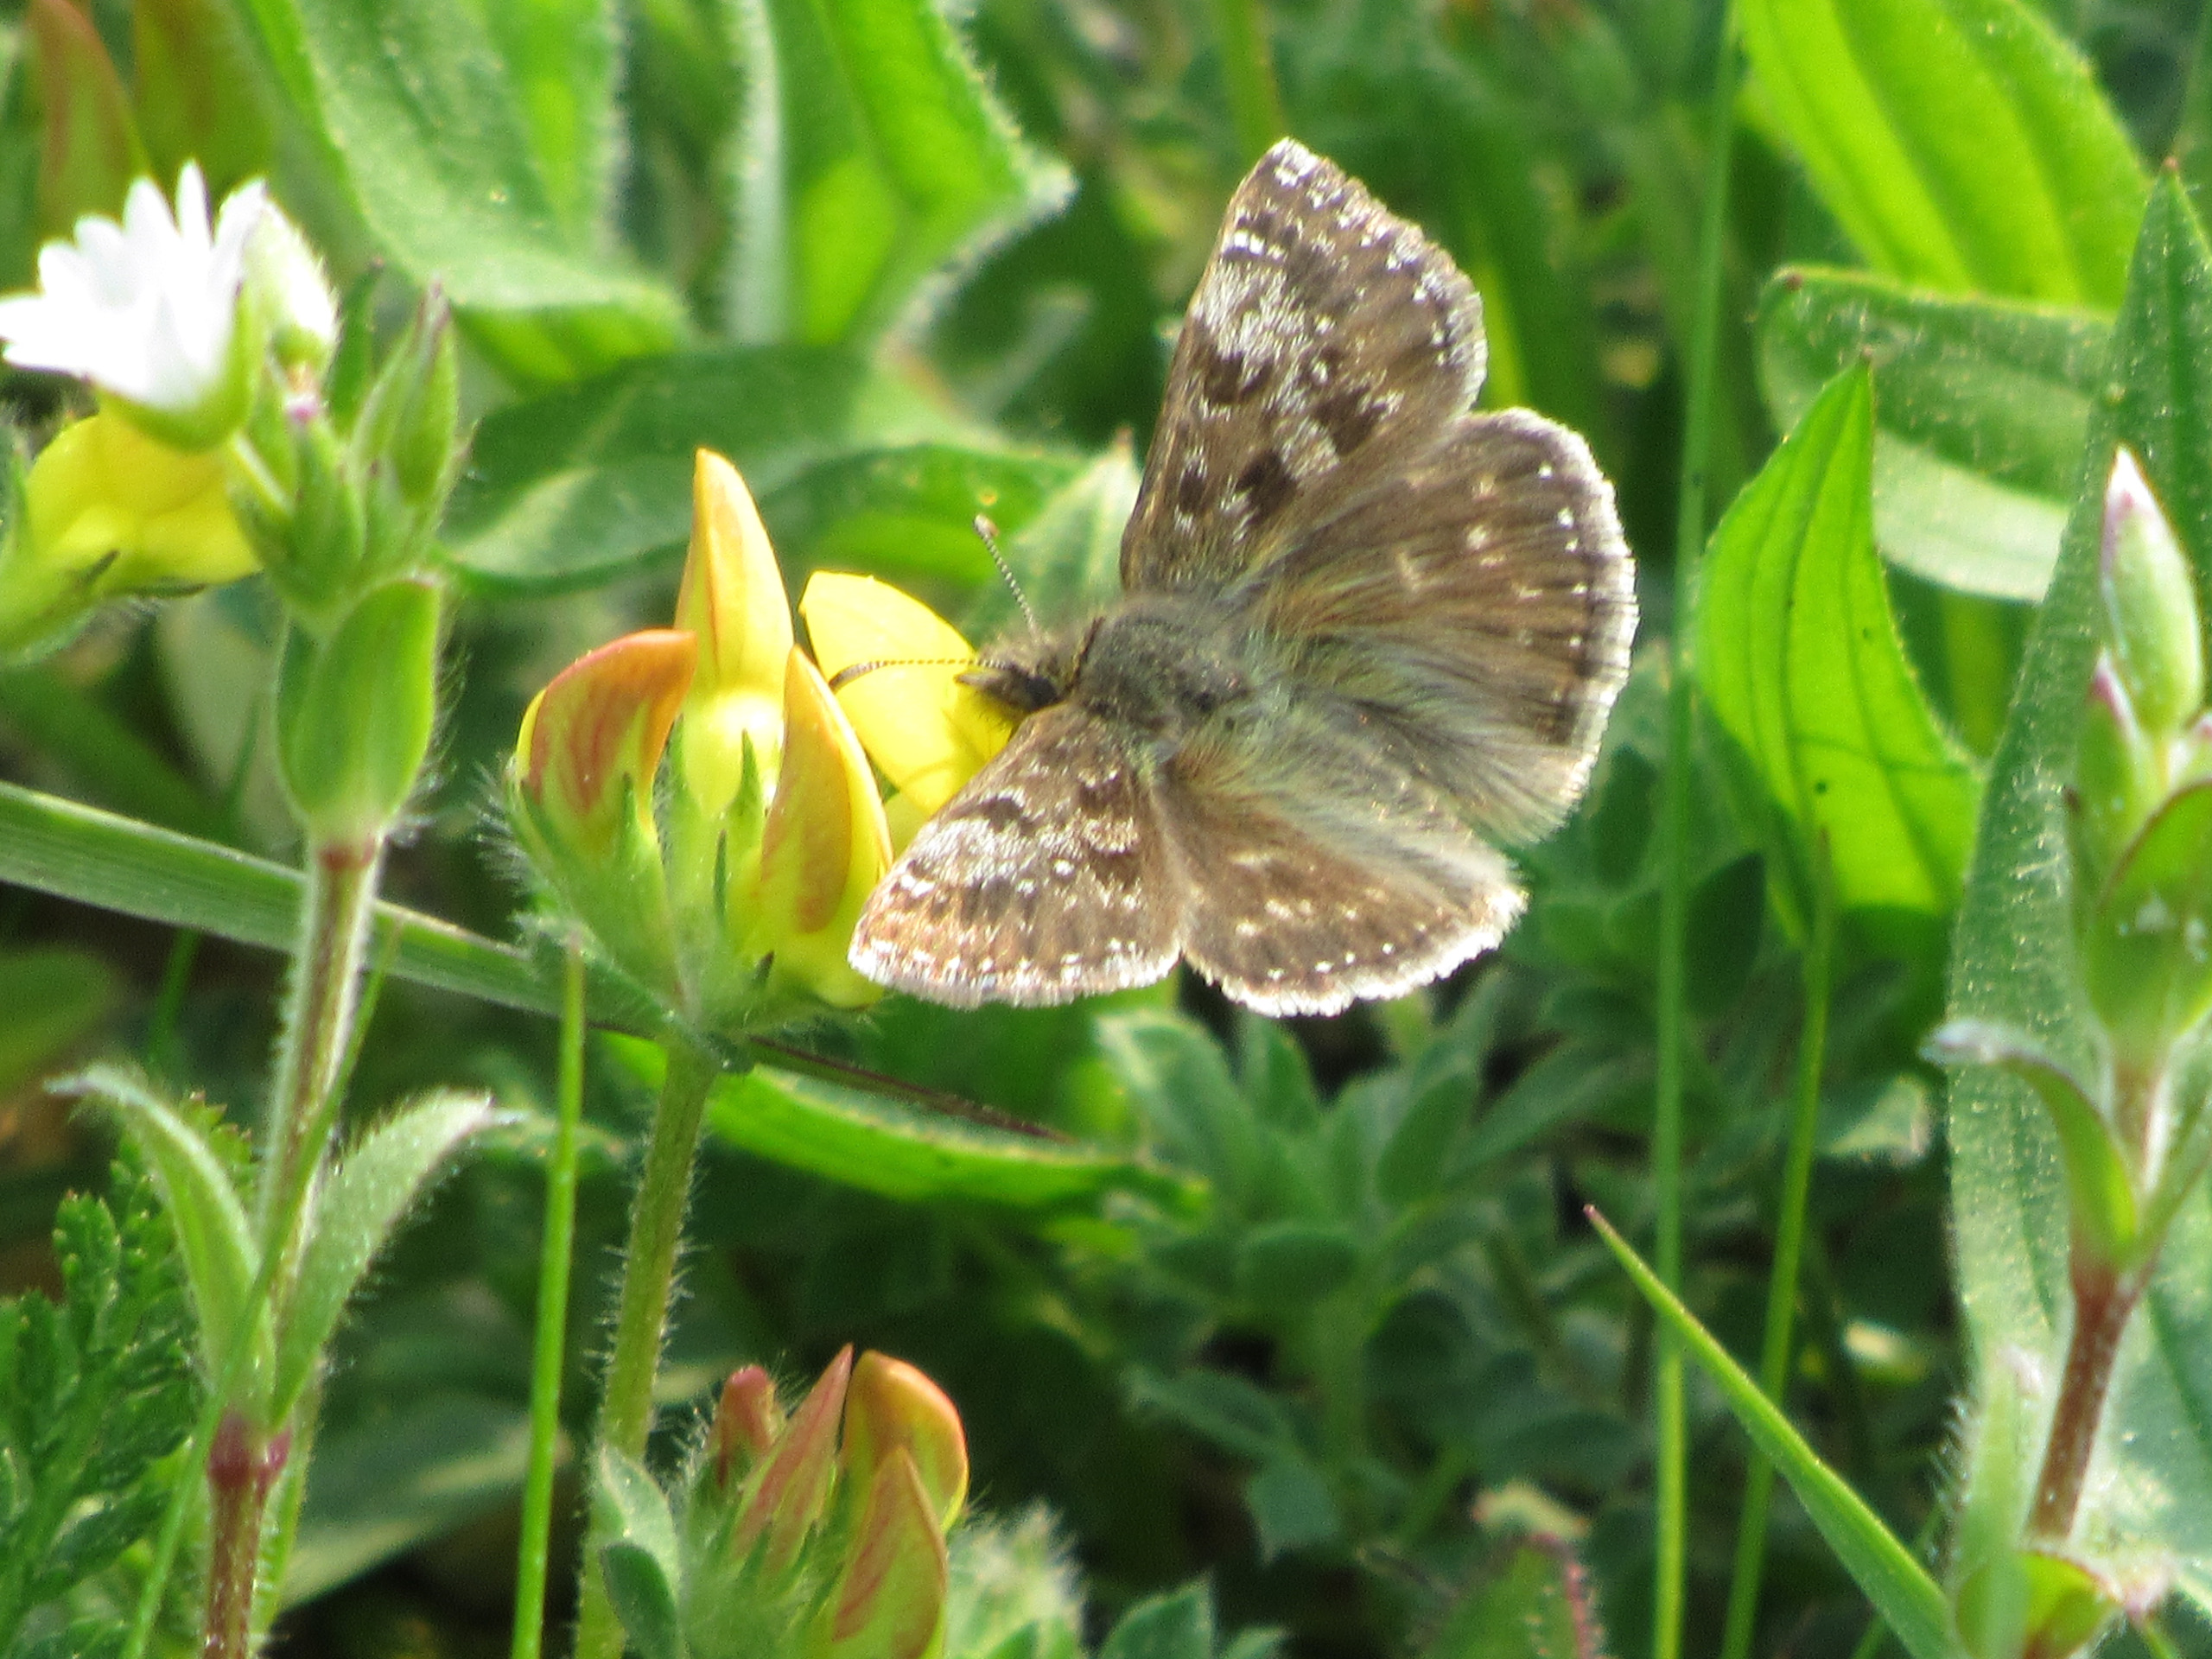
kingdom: Animalia
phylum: Arthropoda
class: Insecta
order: Lepidoptera
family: Hesperiidae
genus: Erynnis
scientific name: Erynnis tages
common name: Gråbåndet bredpande
